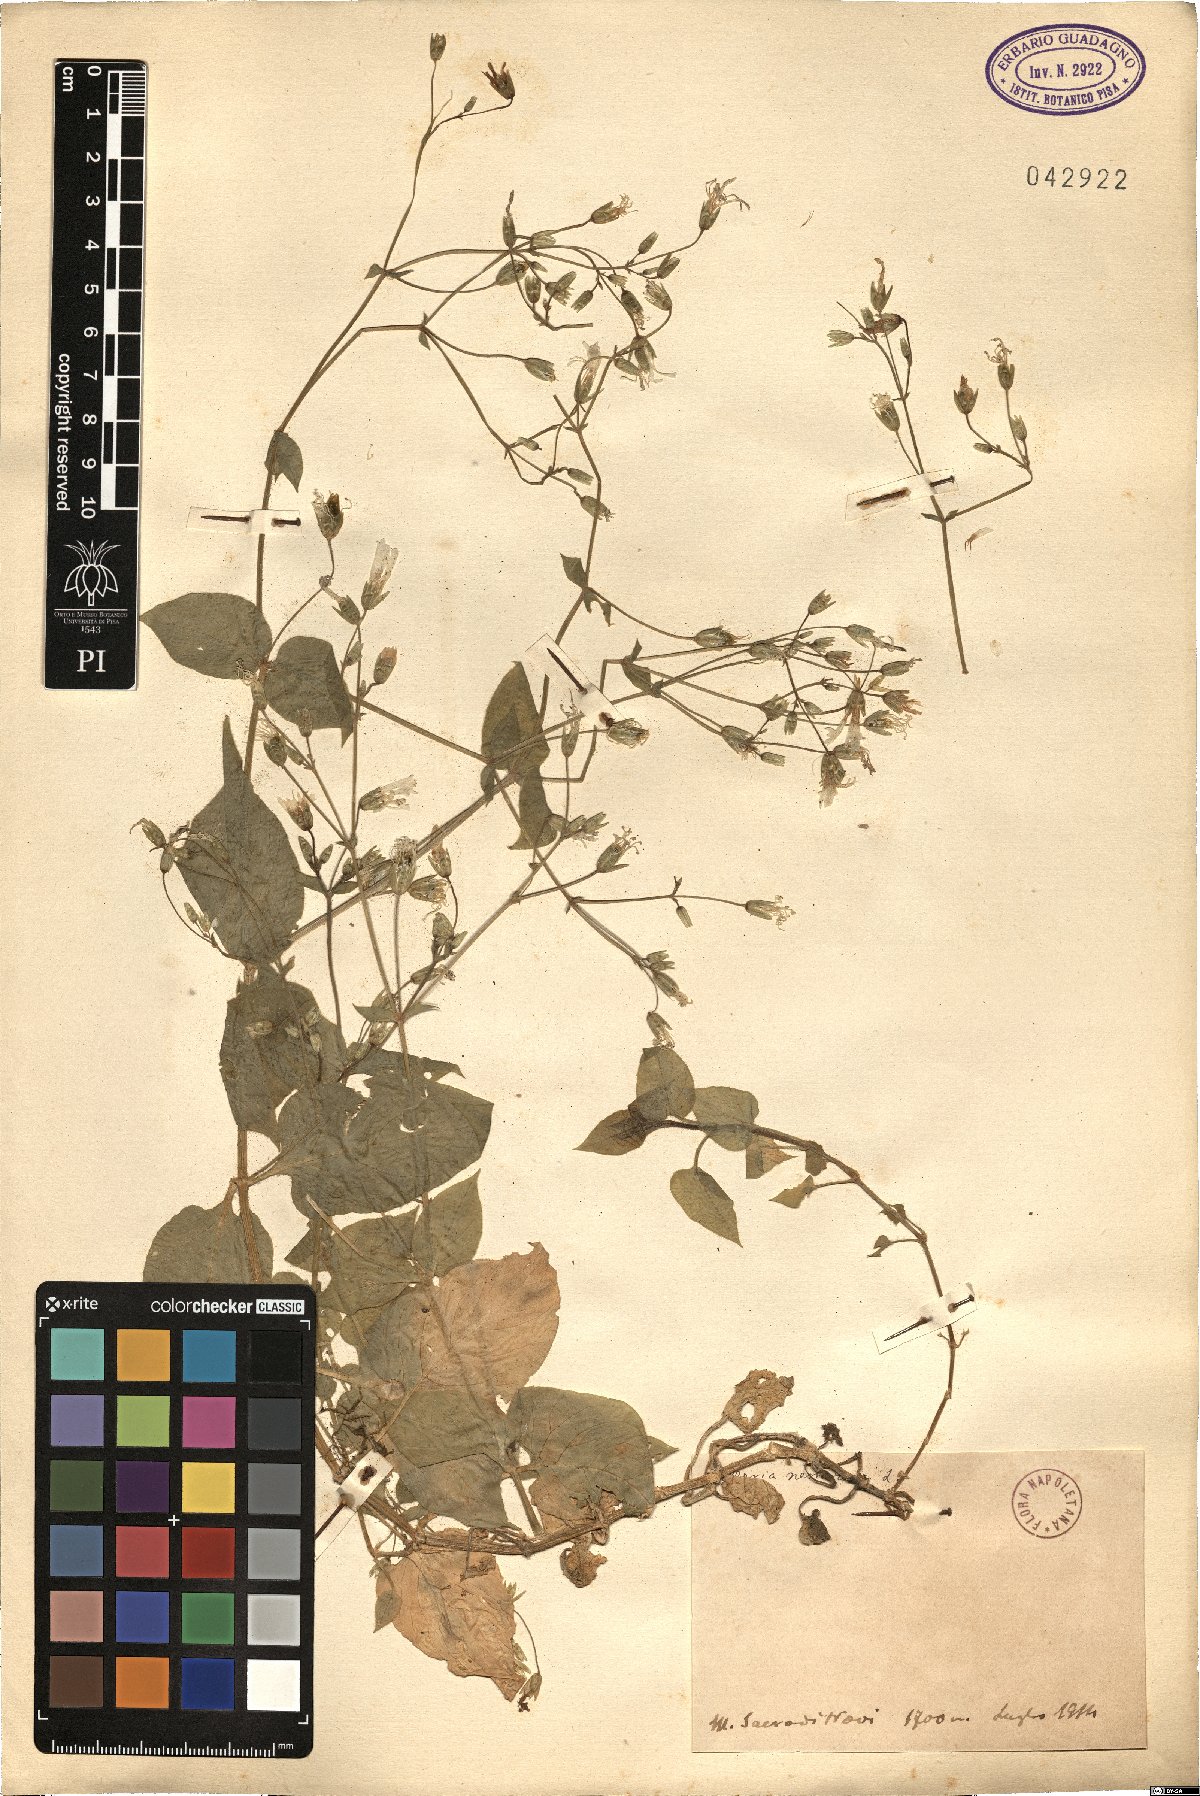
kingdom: Plantae
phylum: Tracheophyta
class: Magnoliopsida
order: Caryophyllales
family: Caryophyllaceae
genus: Stellaria
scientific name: Stellaria nemorum
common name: Wood stitchwort
